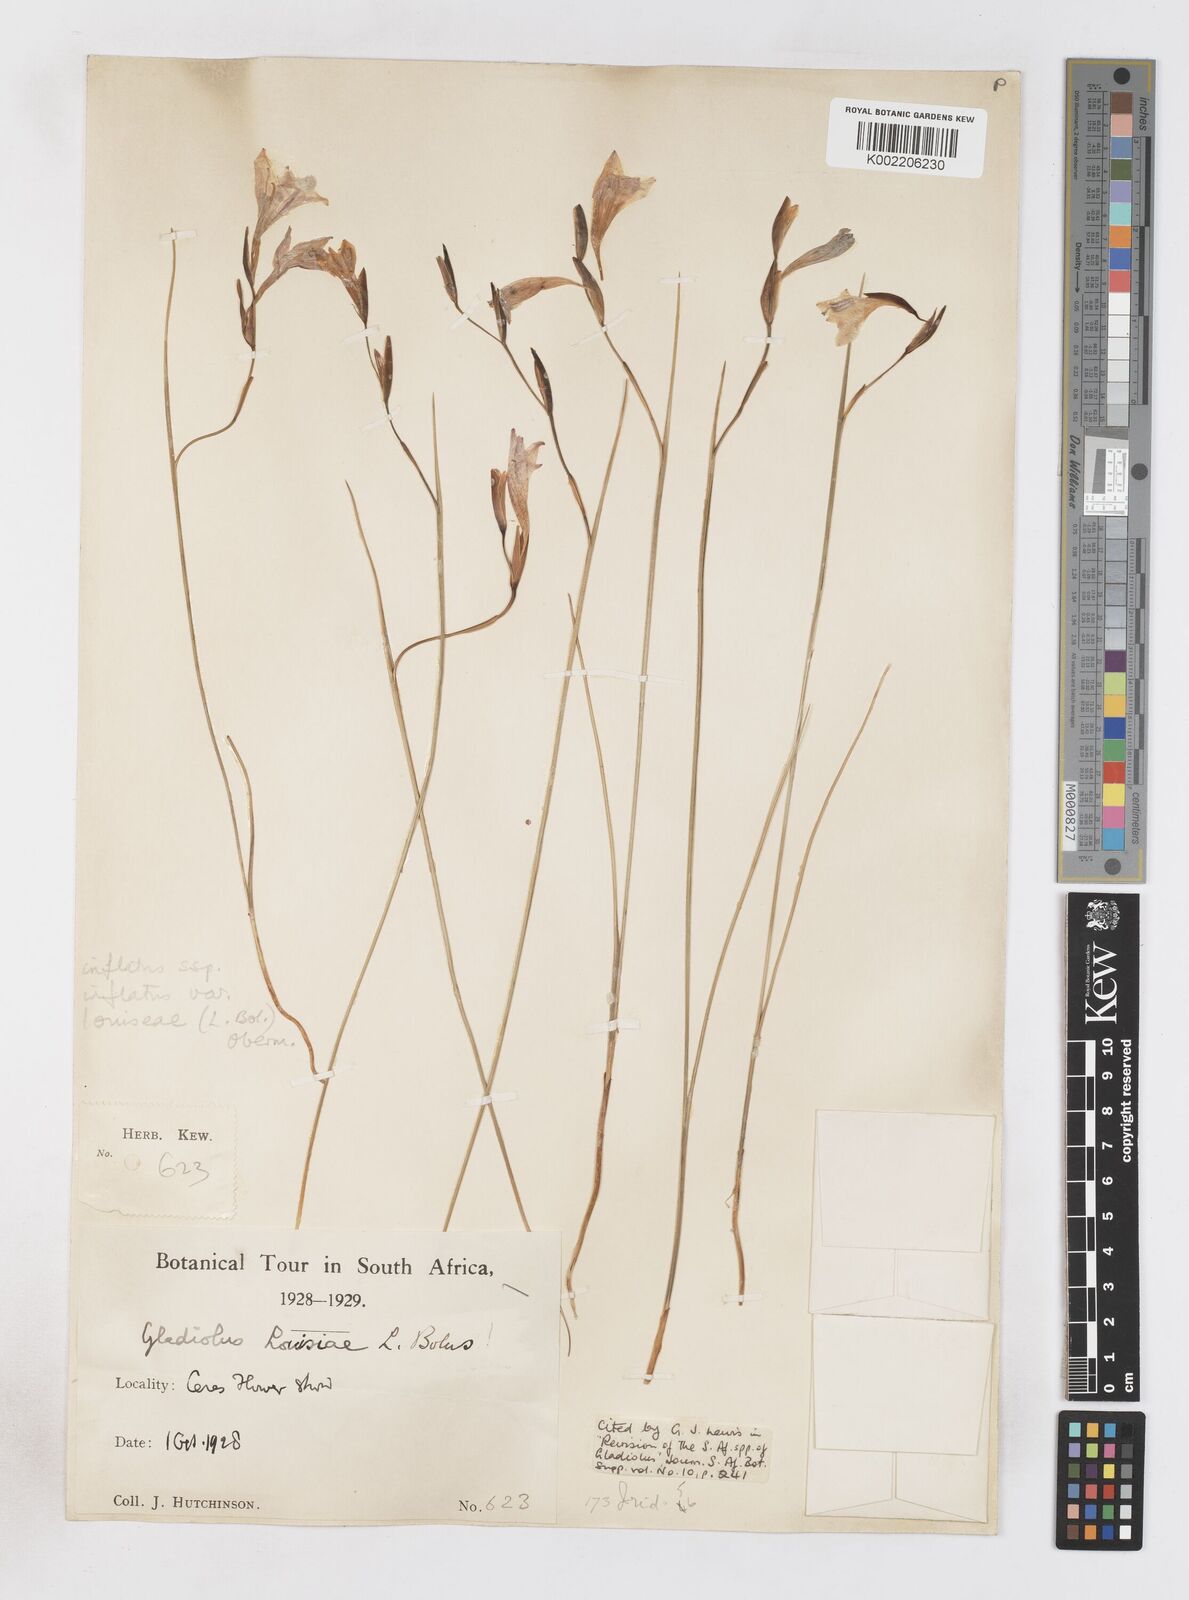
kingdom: Plantae
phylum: Tracheophyta
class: Liliopsida
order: Asparagales
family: Iridaceae
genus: Gladiolus
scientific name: Gladiolus inflatus
